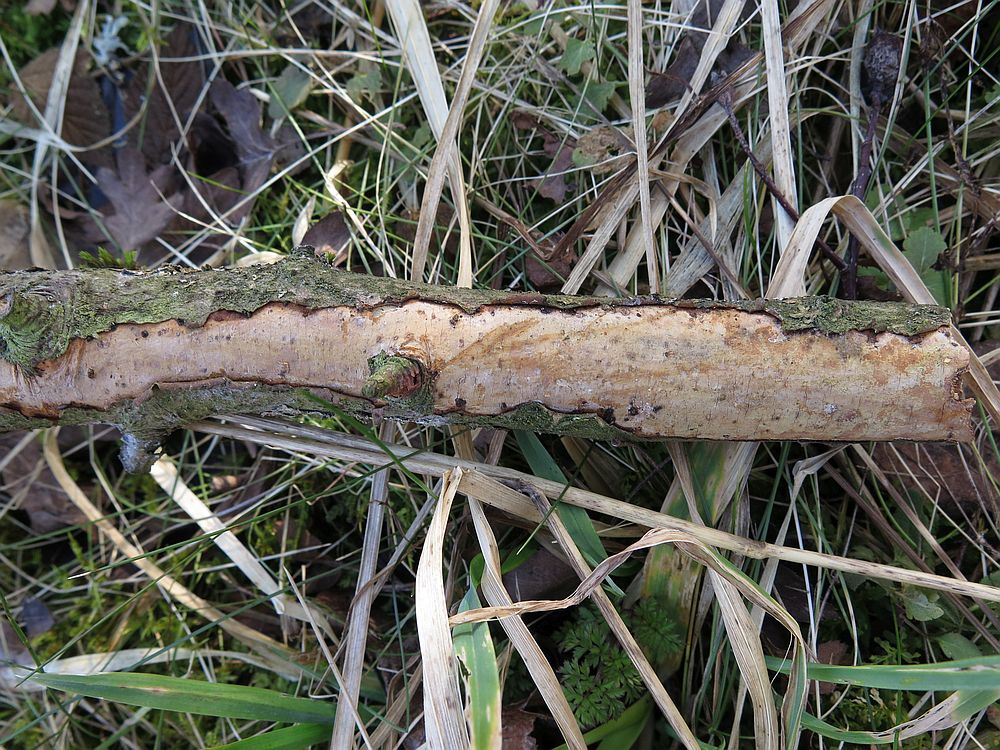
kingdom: Fungi
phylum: Basidiomycota
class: Agaricomycetes
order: Corticiales
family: Vuilleminiaceae
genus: Vuilleminia
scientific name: Vuilleminia cystidiata
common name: tjørne-barksprænger
